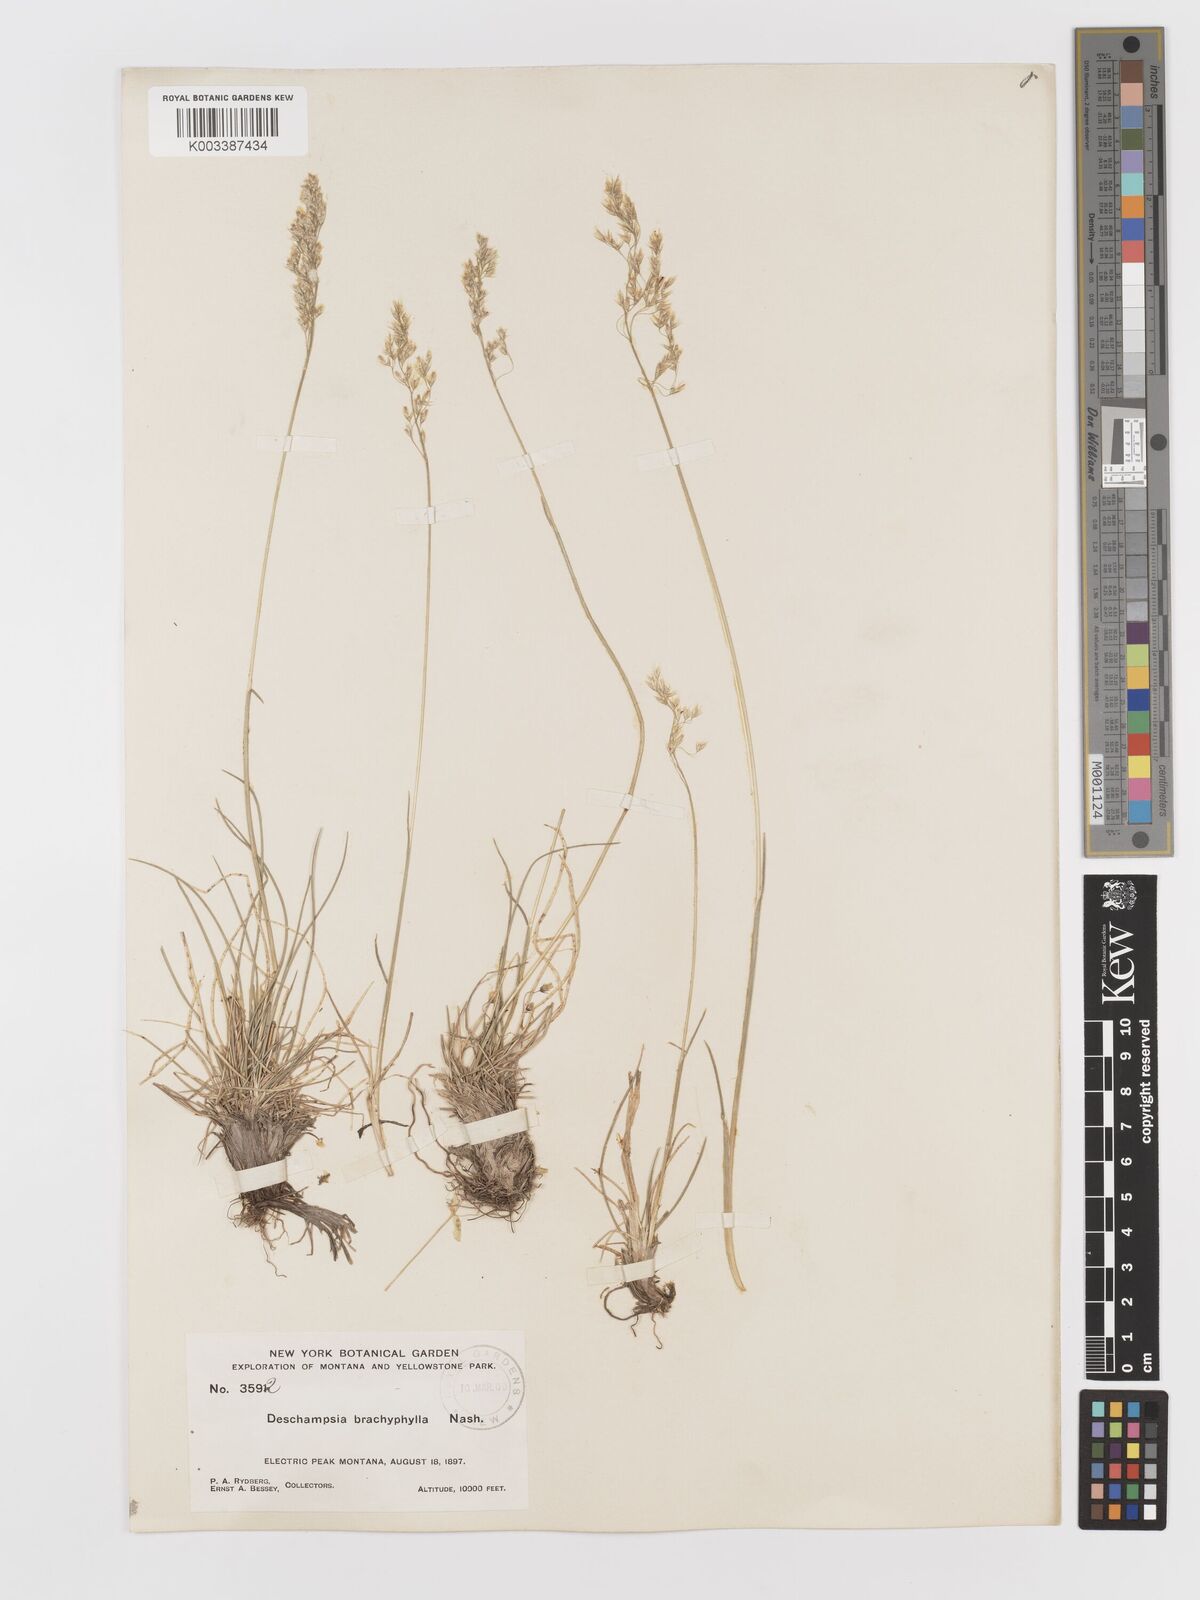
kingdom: Plantae
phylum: Tracheophyta
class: Liliopsida
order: Poales
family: Poaceae
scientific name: Poaceae
